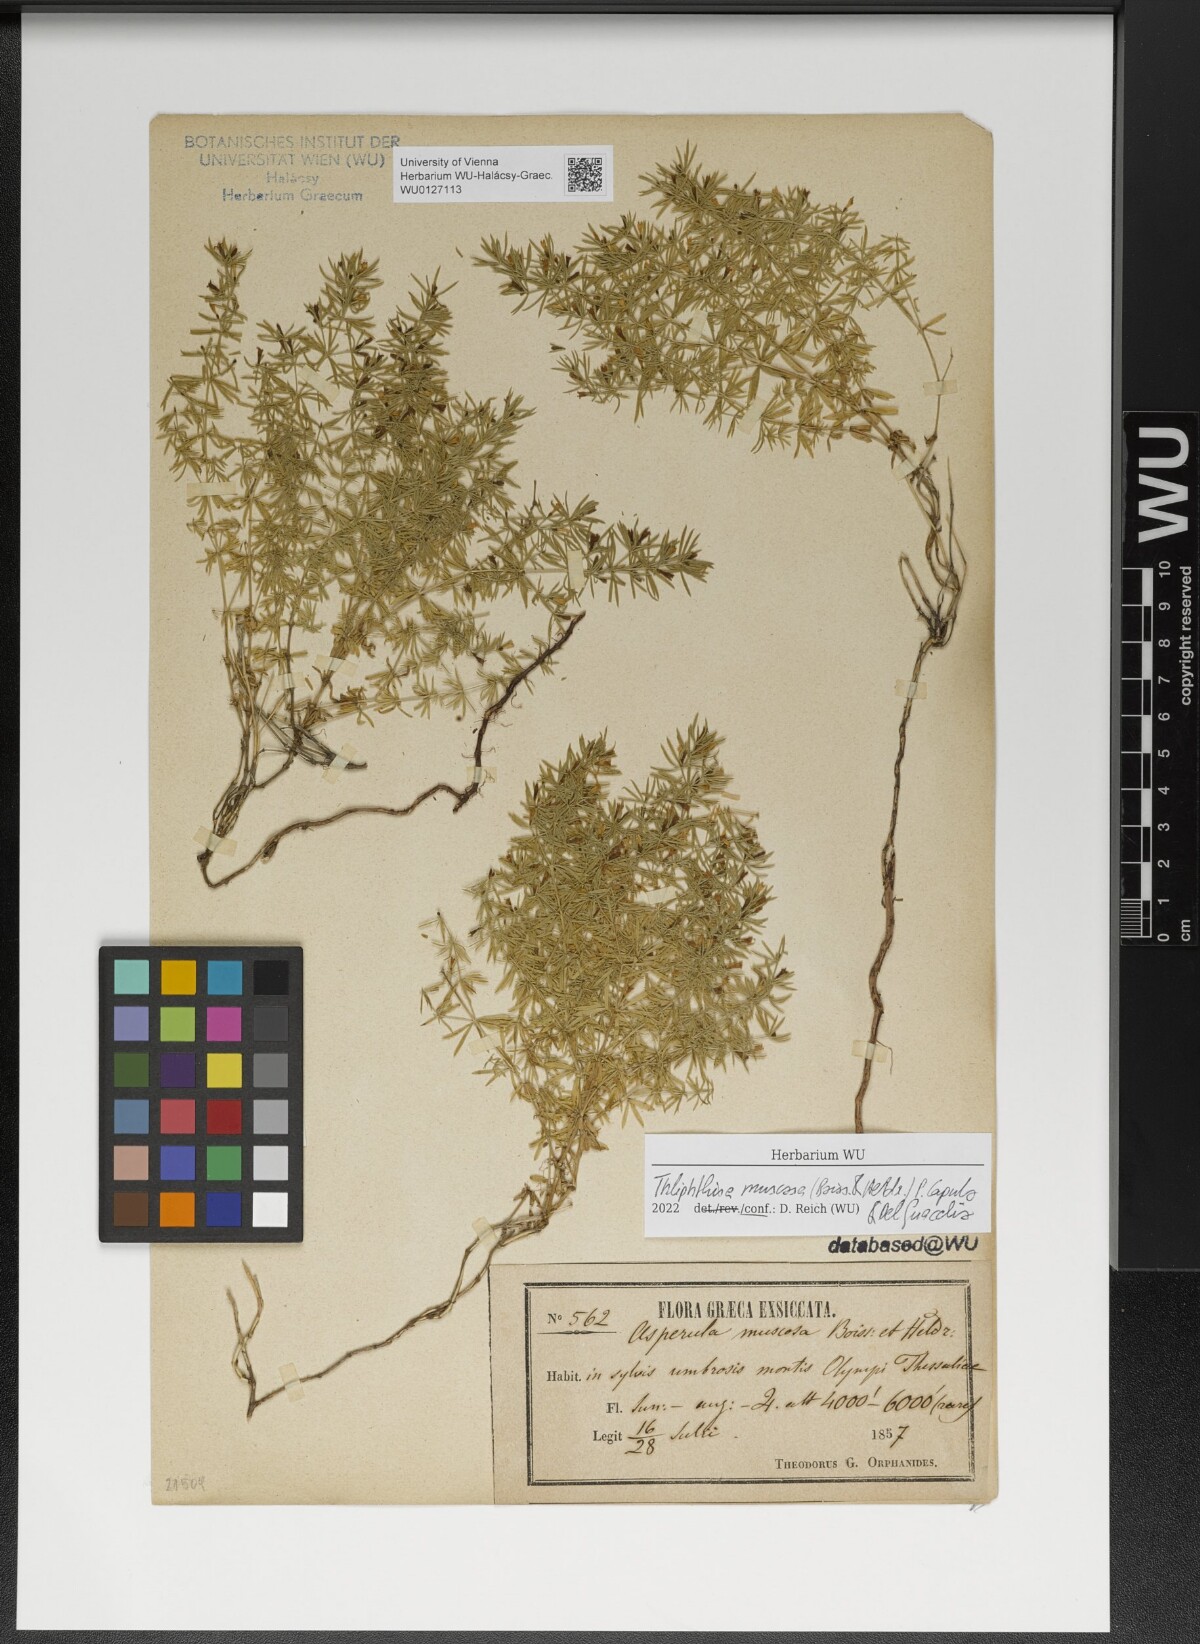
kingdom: Plantae
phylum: Tracheophyta
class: Magnoliopsida
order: Gentianales
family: Rubiaceae
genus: Thliphthisa
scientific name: Thliphthisa muscosa
